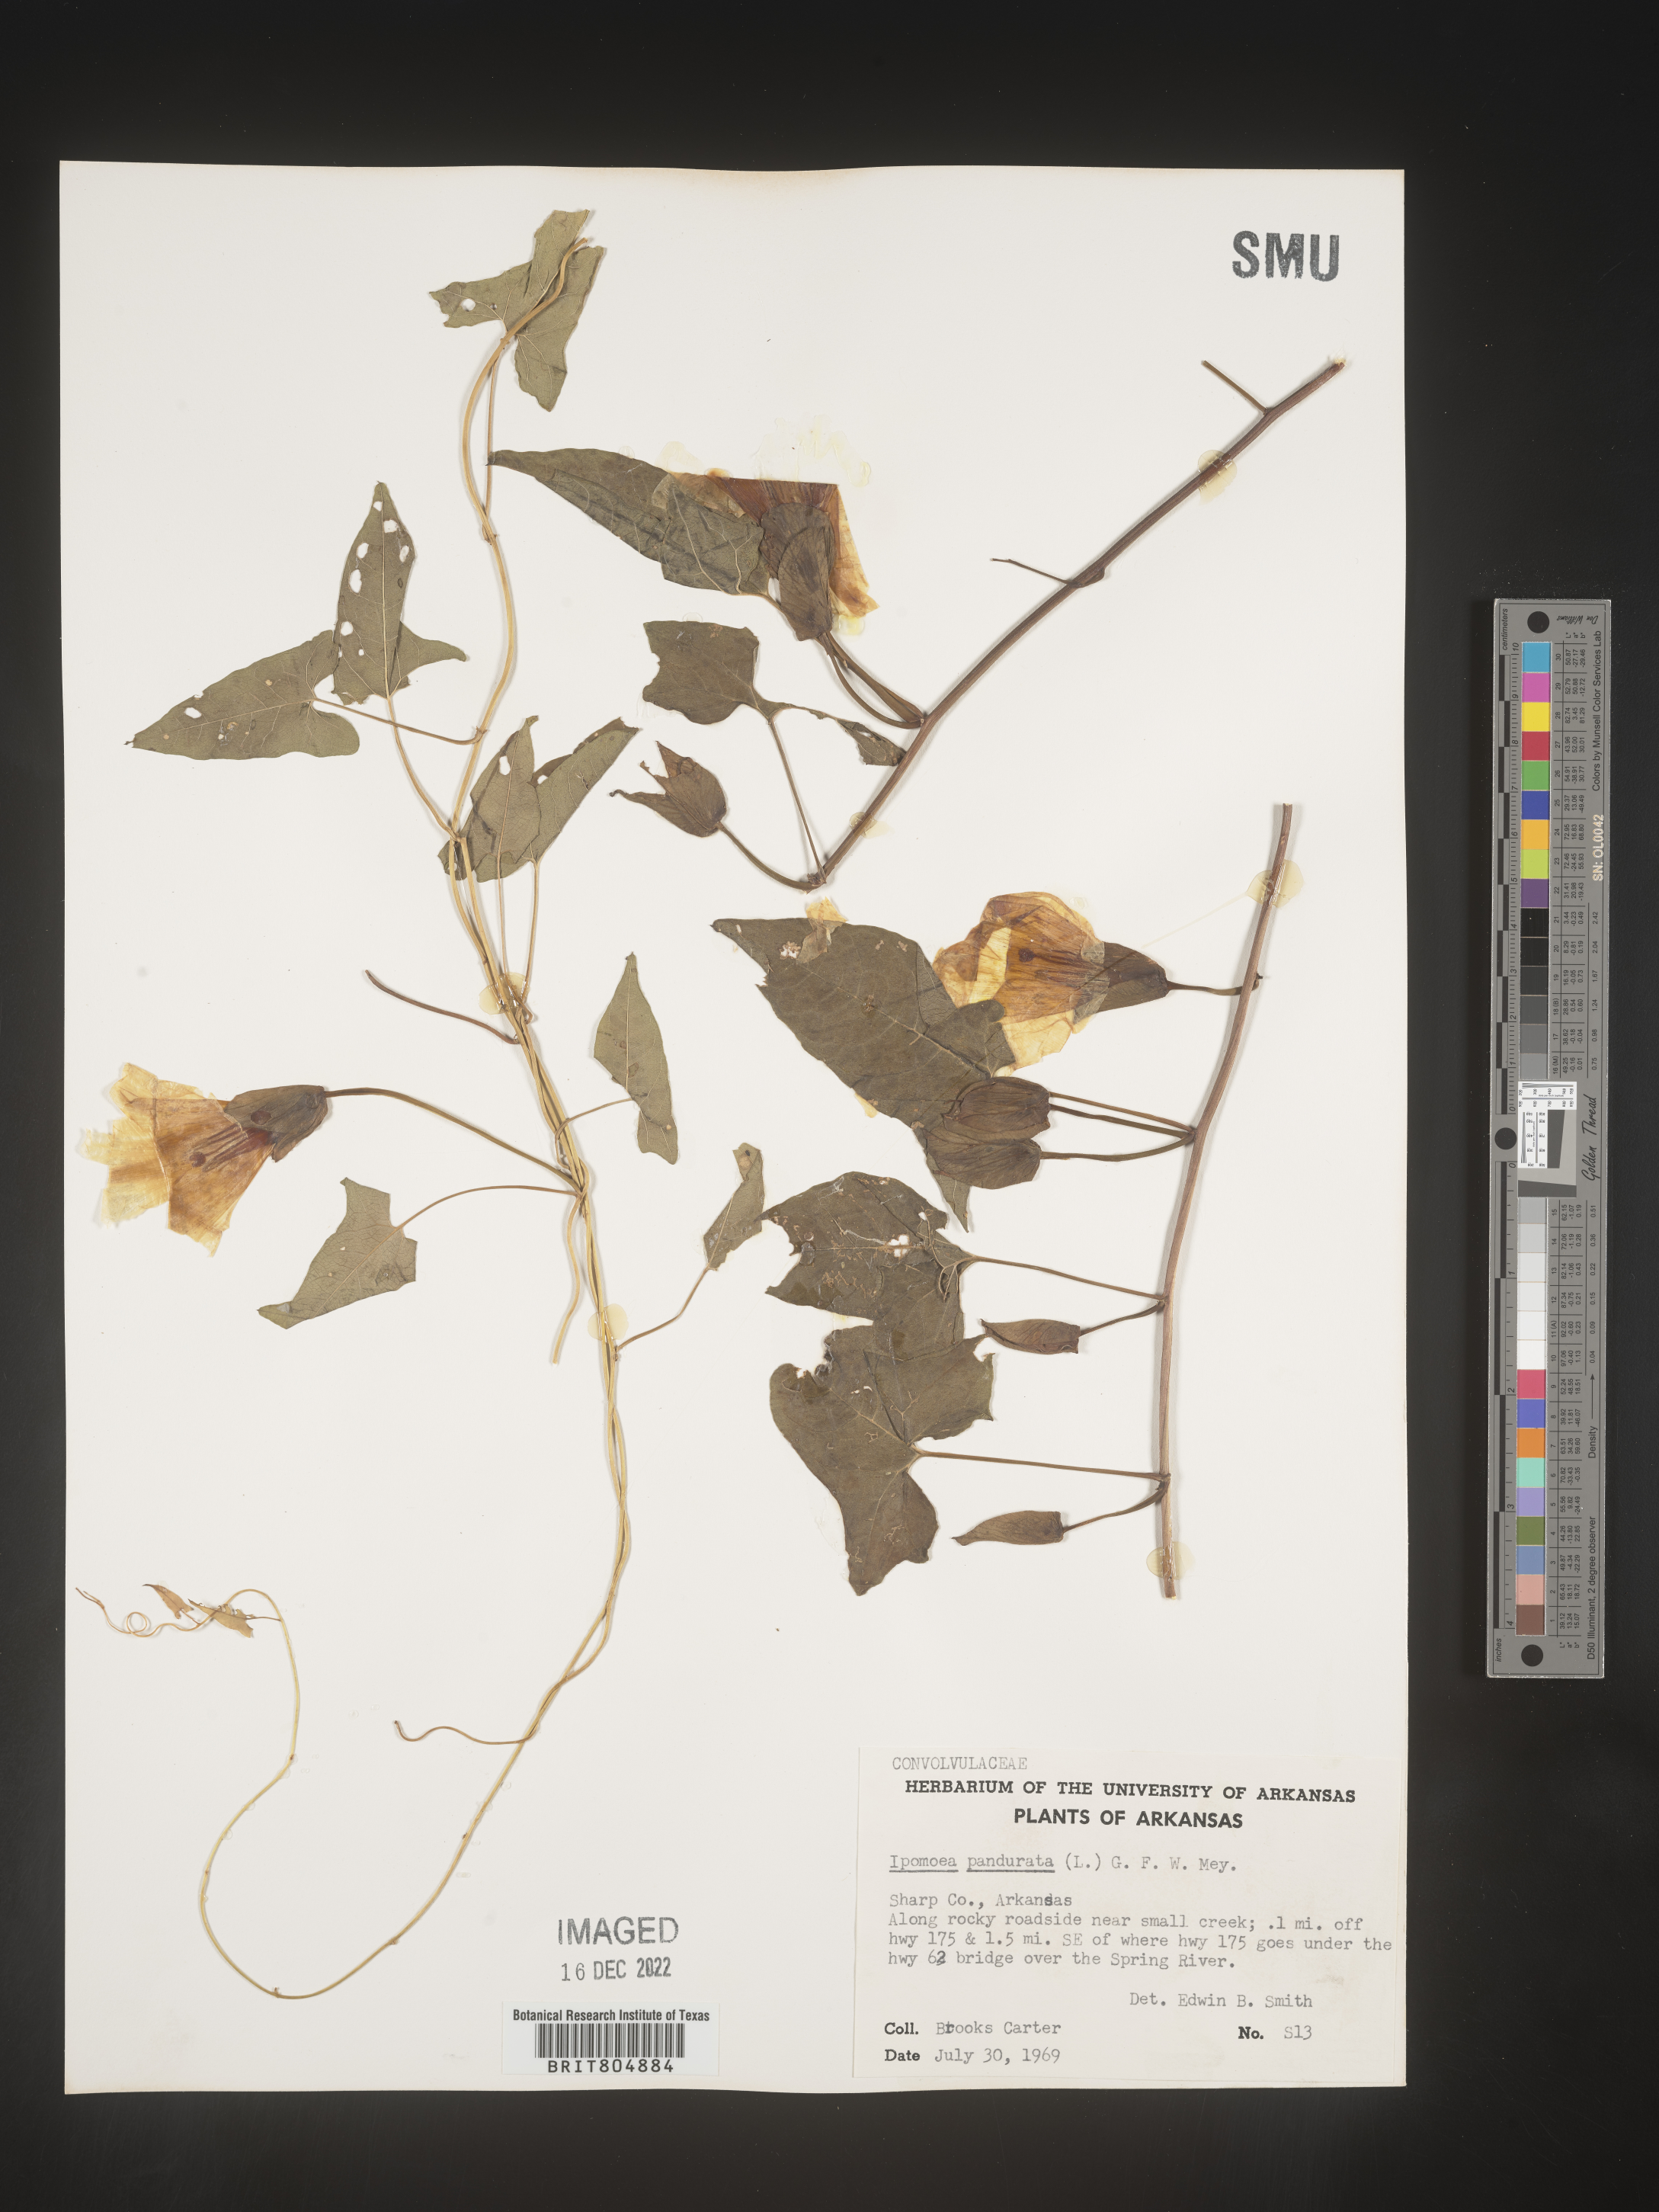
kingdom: Plantae
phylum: Tracheophyta
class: Magnoliopsida
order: Solanales
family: Convolvulaceae
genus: Ipomoea
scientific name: Ipomoea pandurata
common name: Man-of-the-earth
